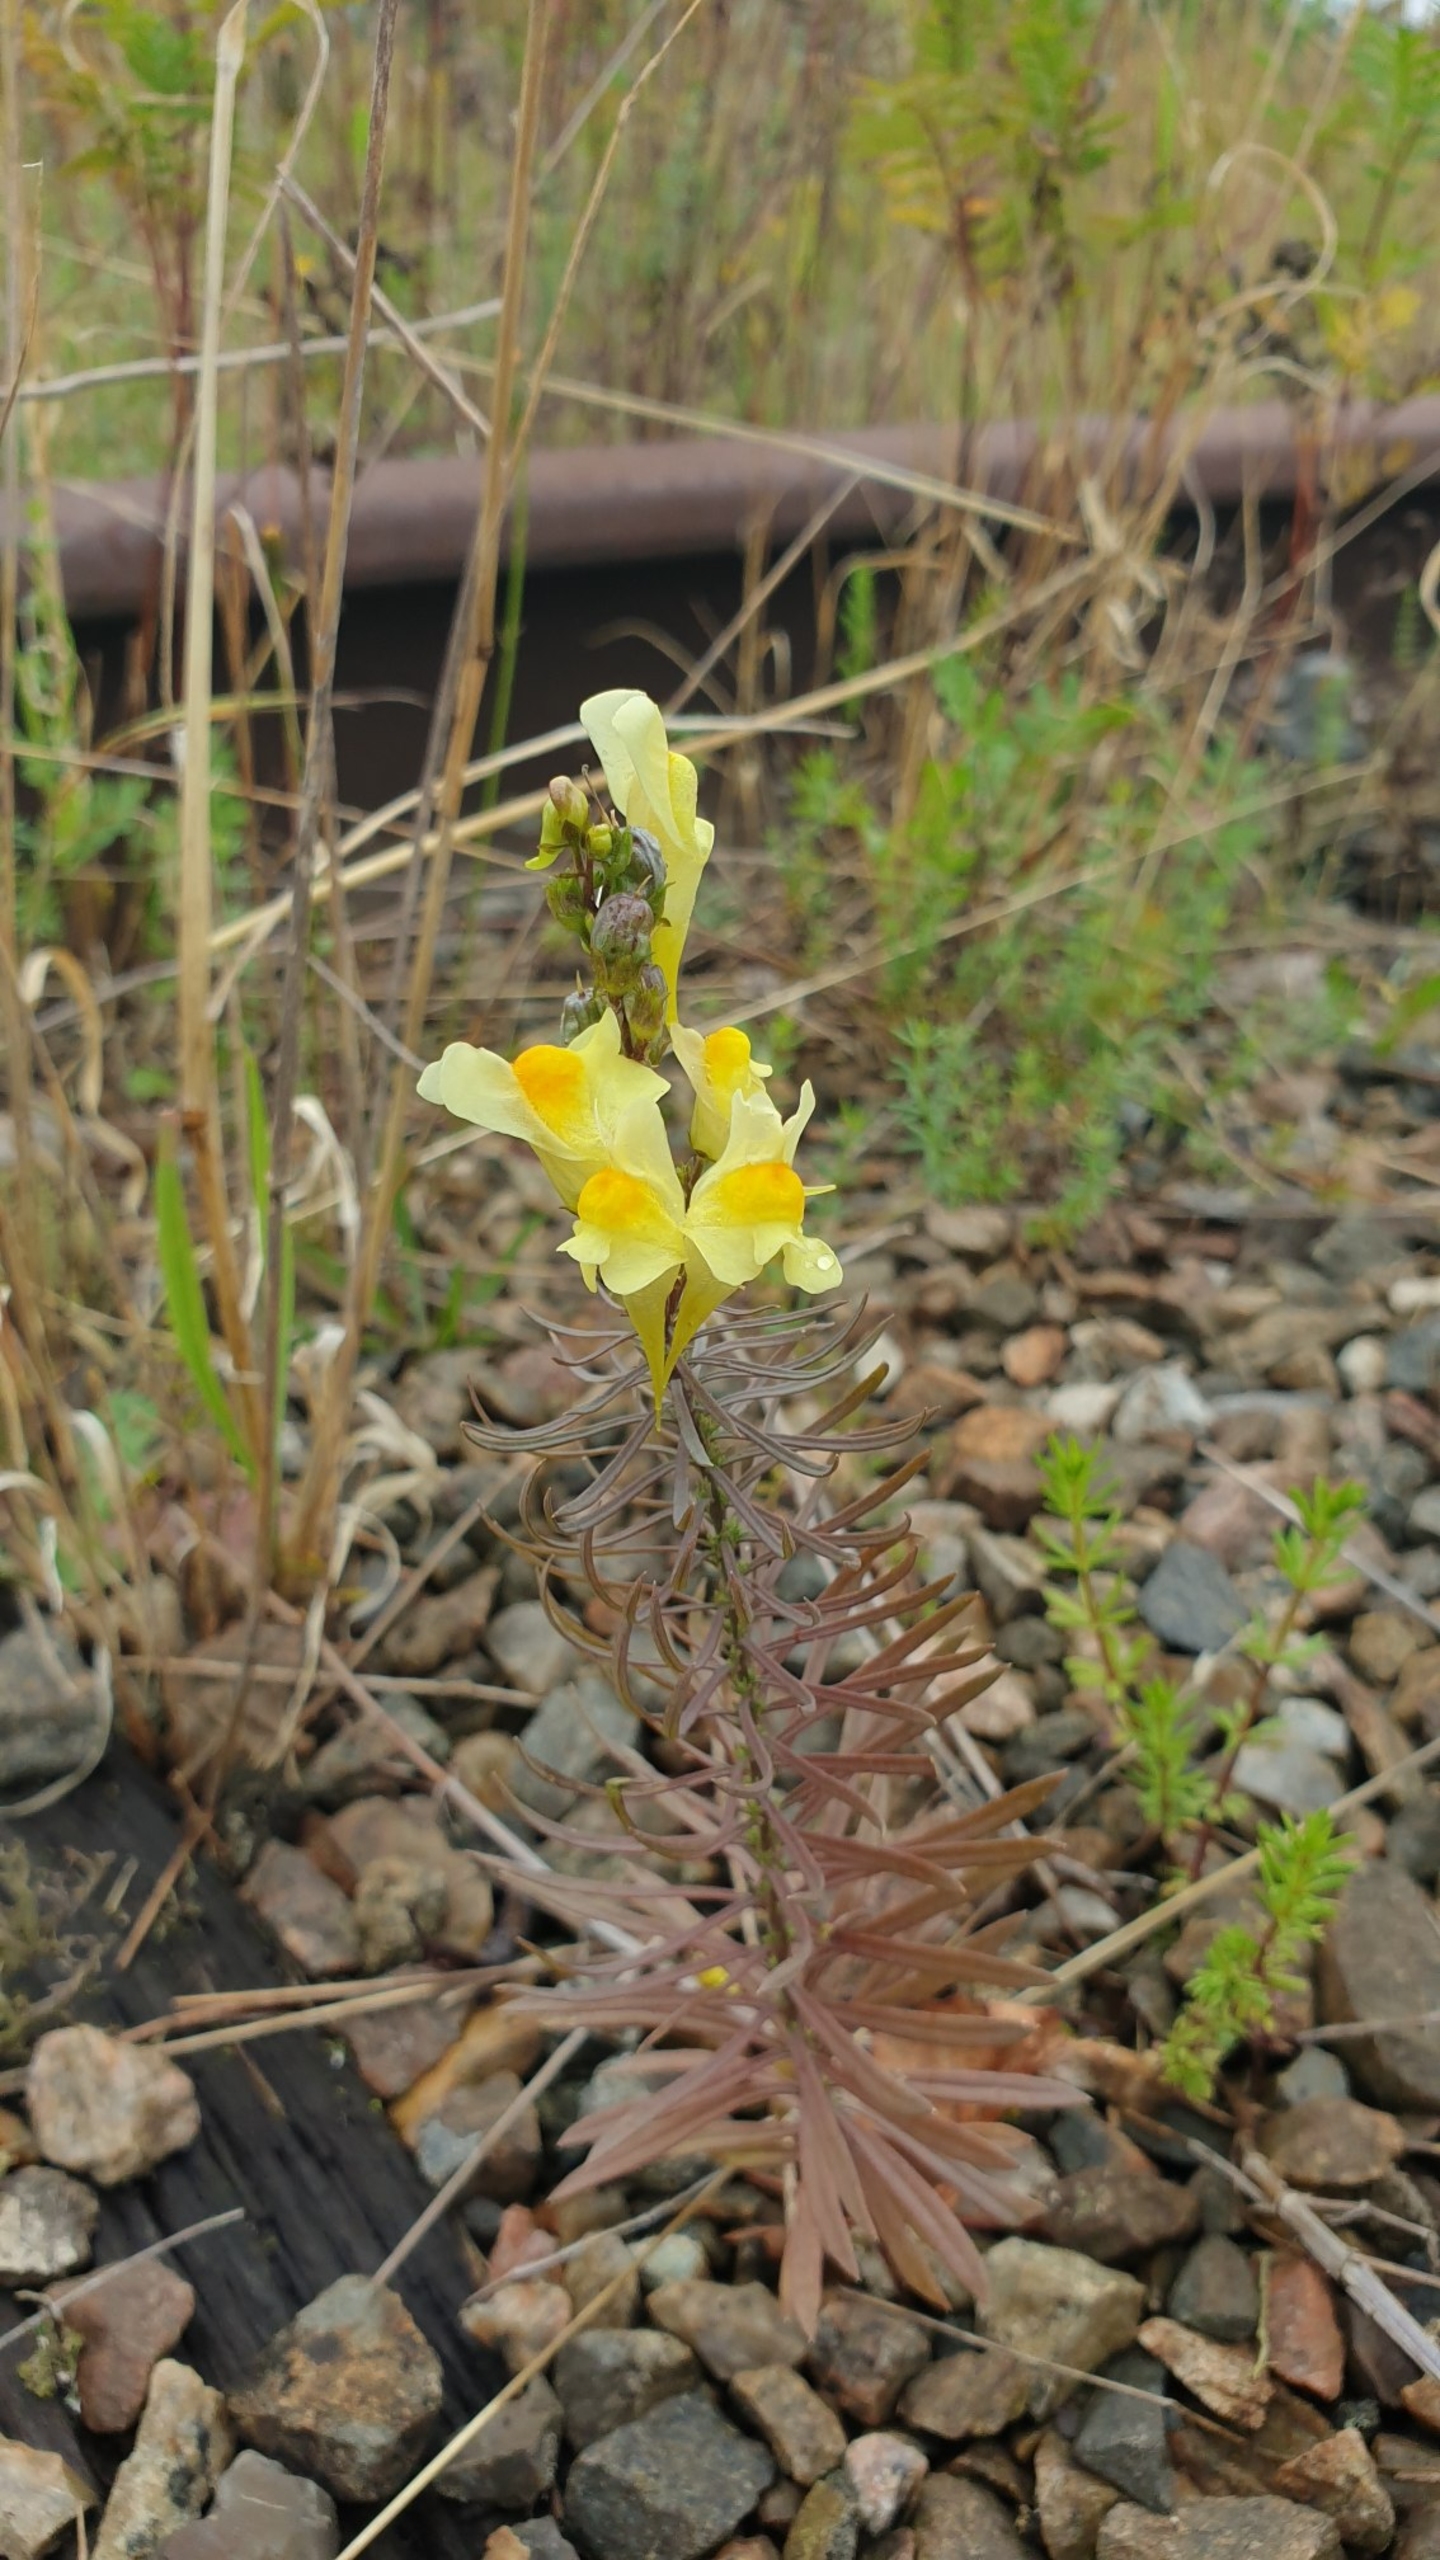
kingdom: Plantae
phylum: Tracheophyta
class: Magnoliopsida
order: Lamiales
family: Plantaginaceae
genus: Linaria
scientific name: Linaria vulgaris
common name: Almindelig torskemund
